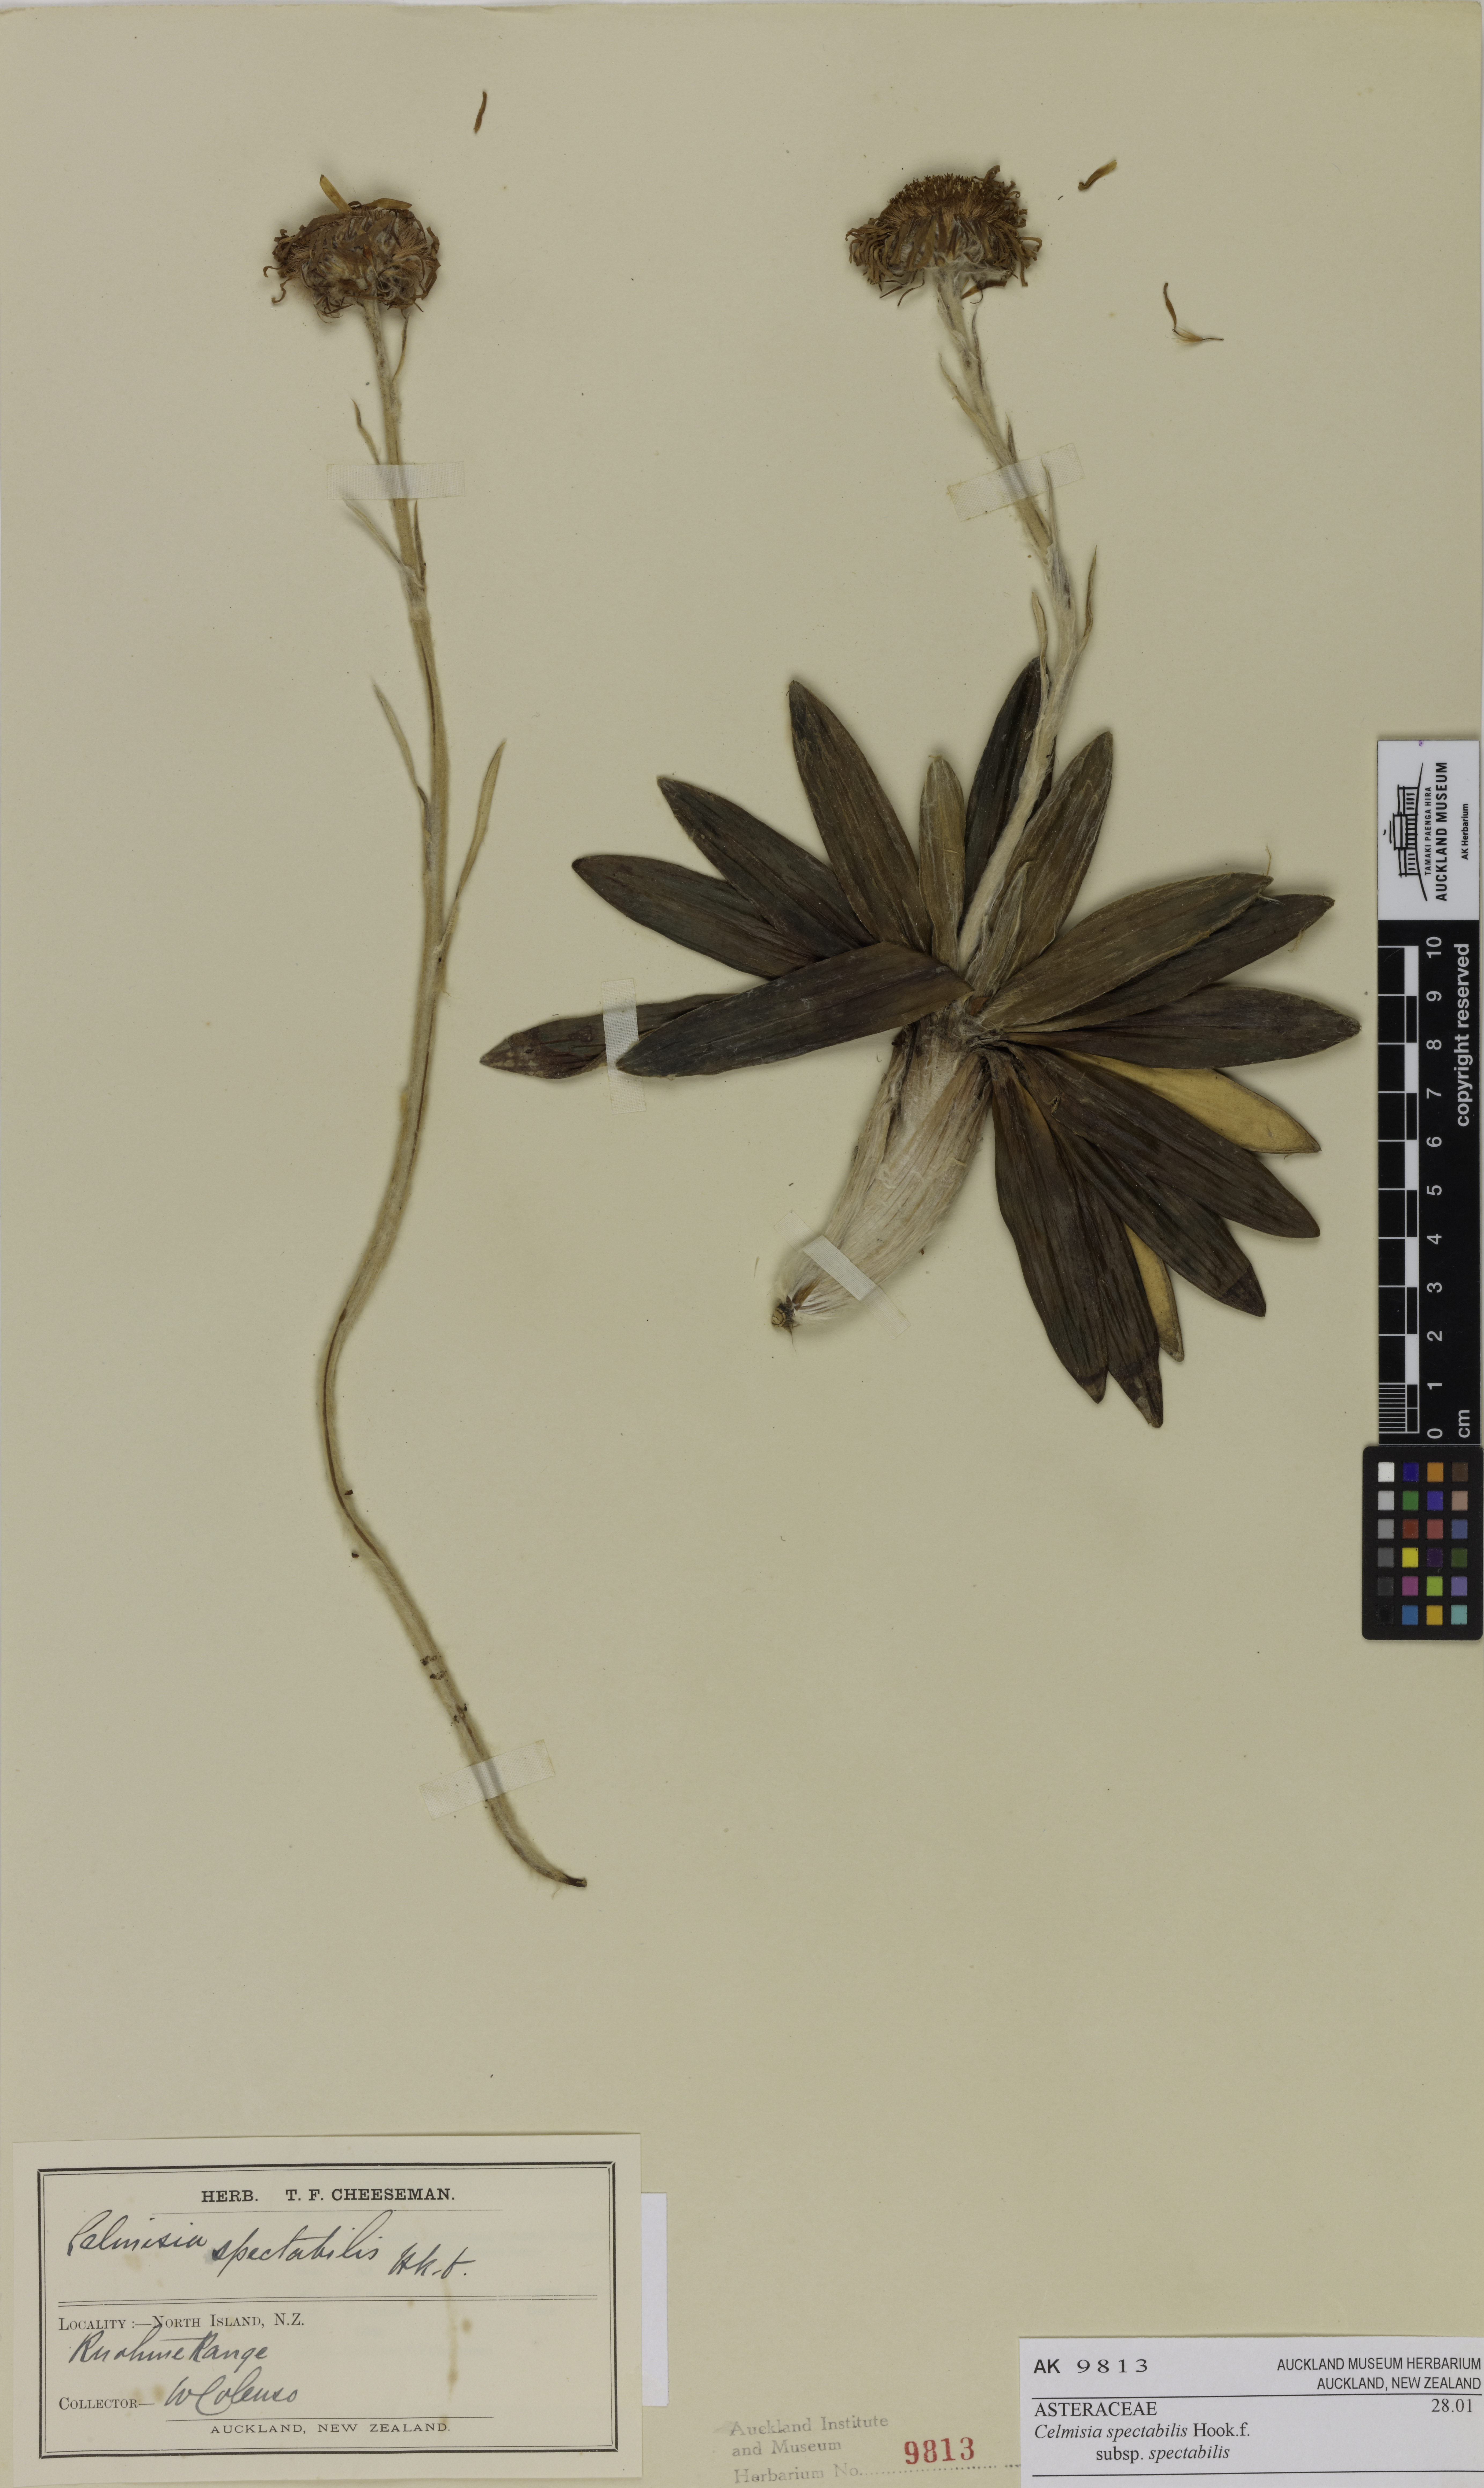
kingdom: Plantae
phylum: Tracheophyta
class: Magnoliopsida
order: Asterales
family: Asteraceae
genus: Celmisia
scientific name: Celmisia spectabilis
